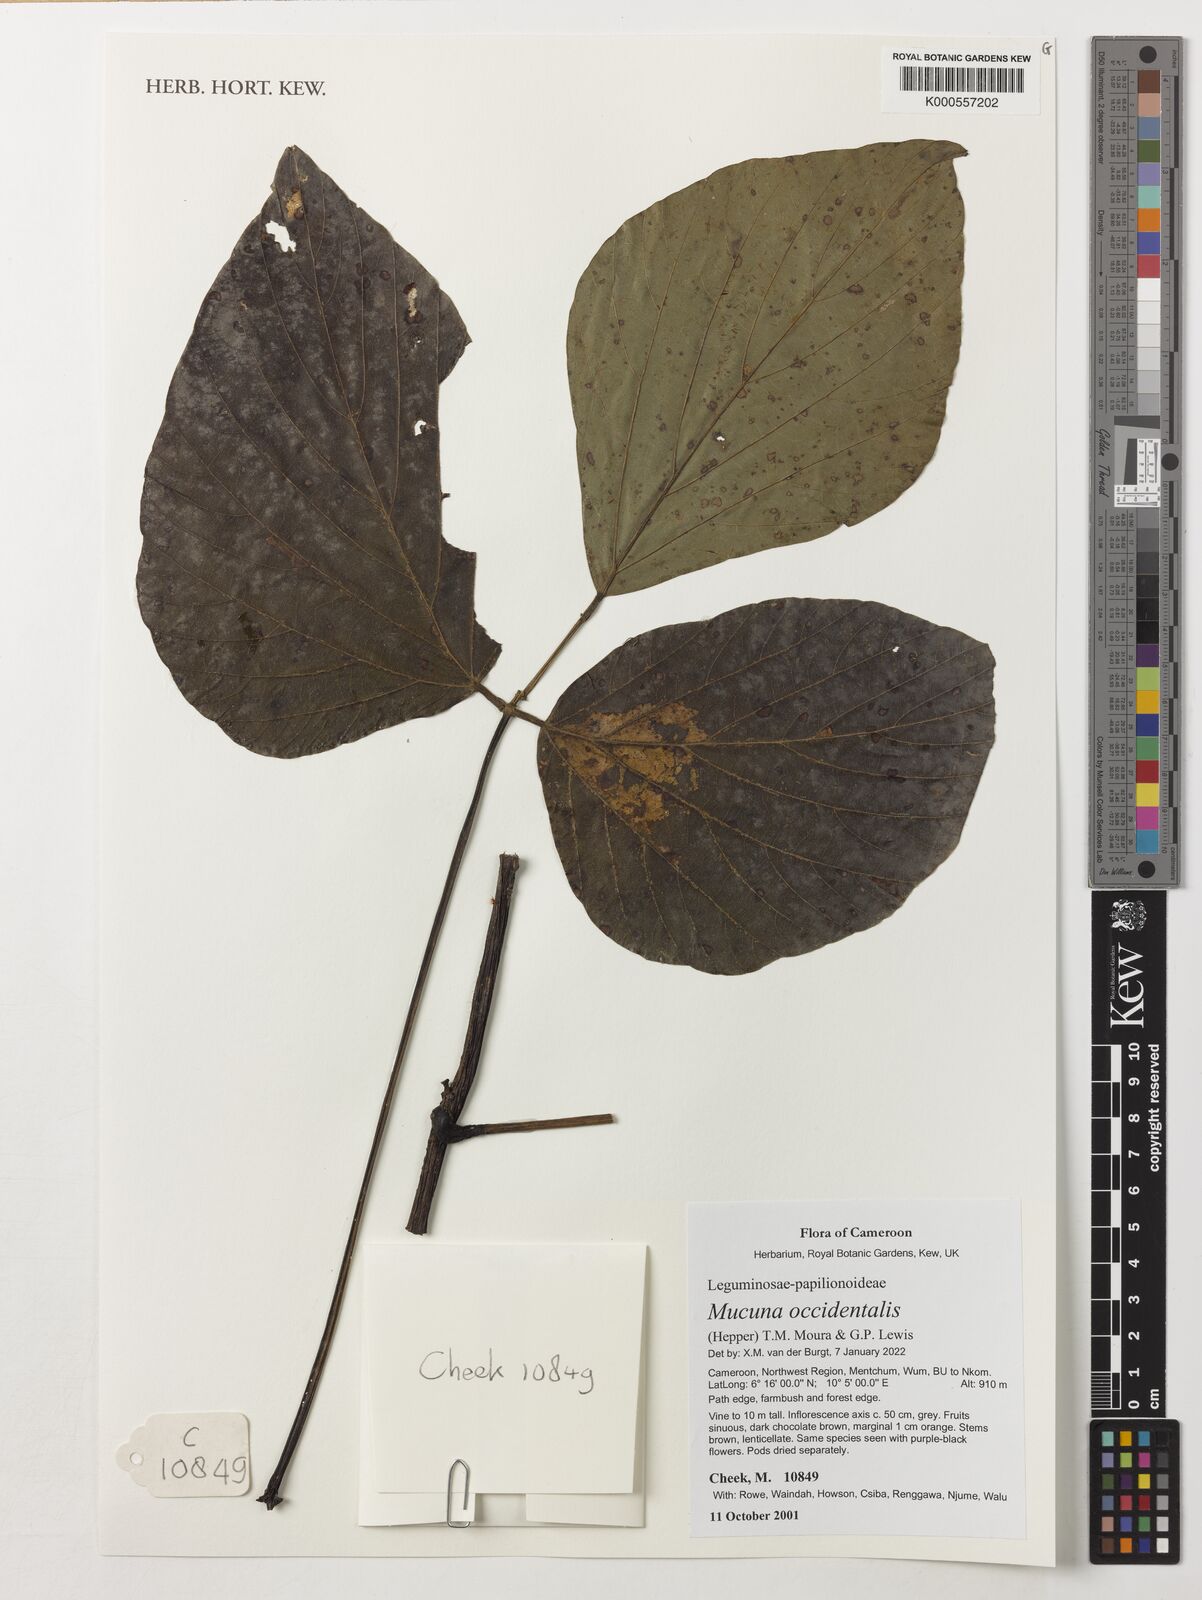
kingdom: Plantae
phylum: Tracheophyta
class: Magnoliopsida
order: Fabales
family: Fabaceae
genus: Mucuna
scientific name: Mucuna occidentalis
